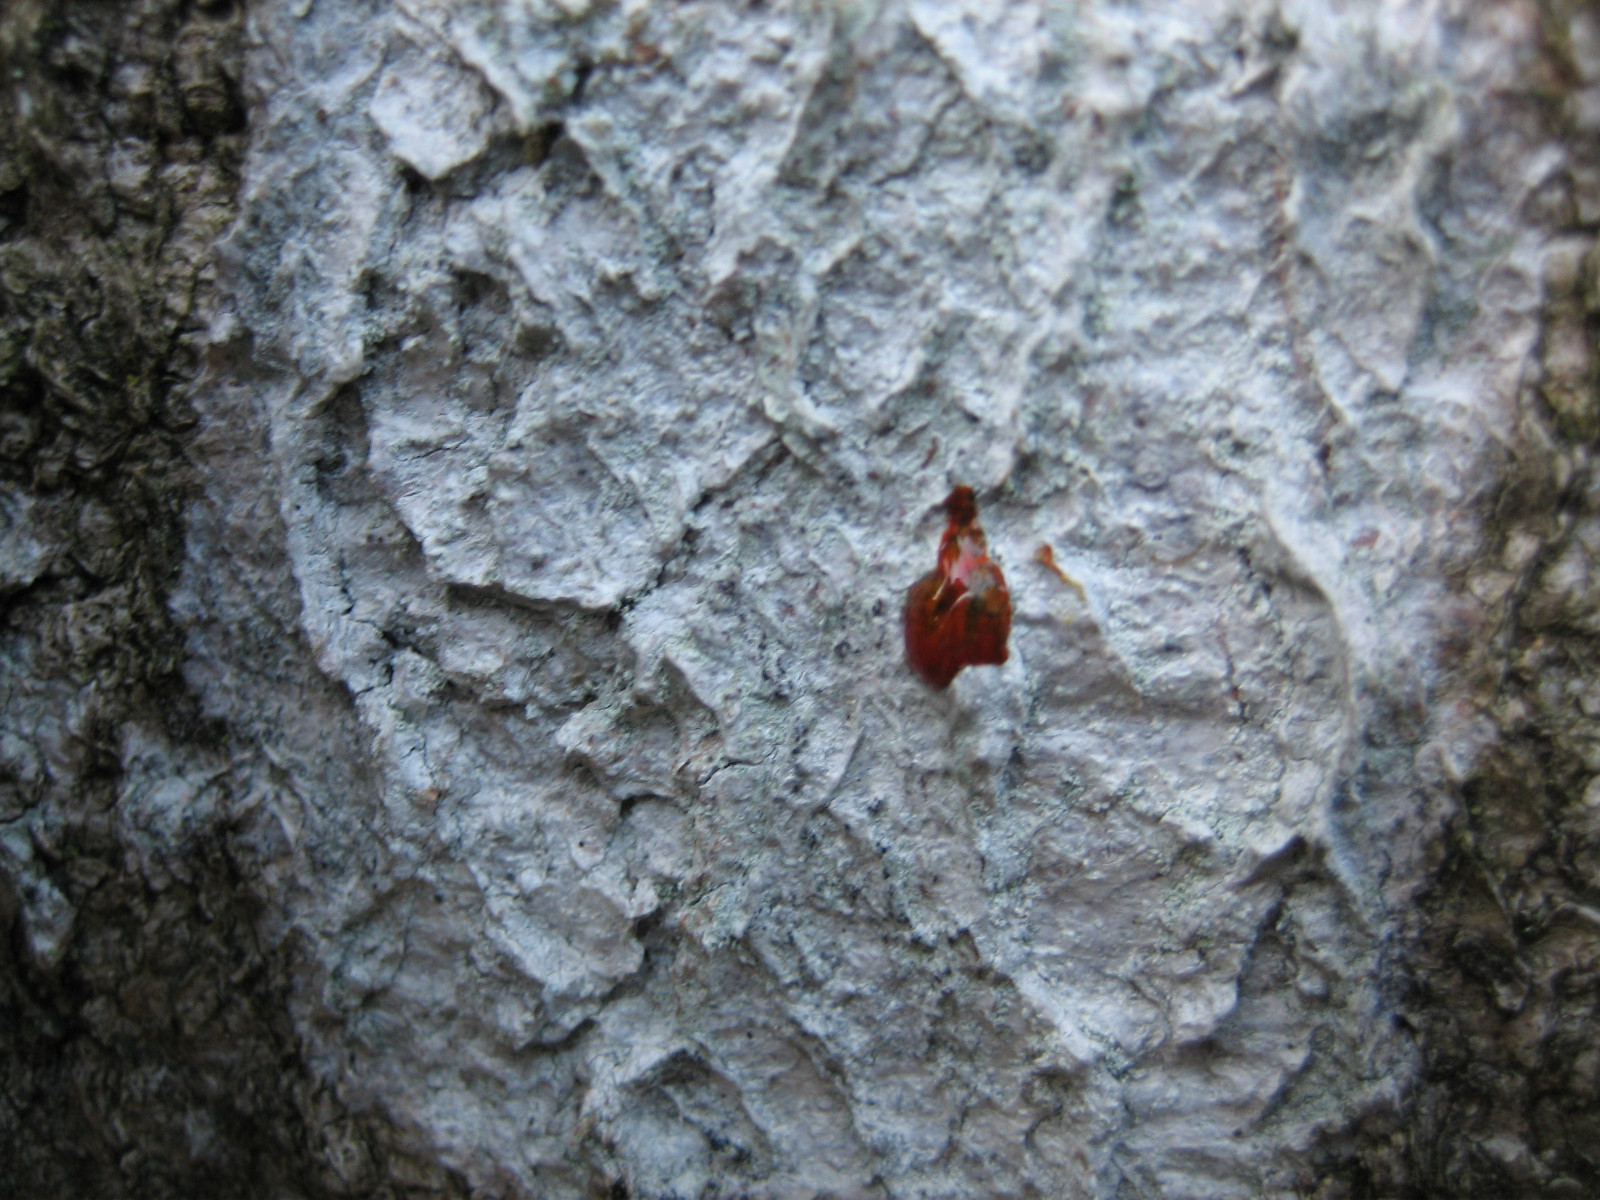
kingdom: Fungi
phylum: Ascomycota
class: Lecanoromycetes
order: Ostropales
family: Phlyctidaceae
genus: Phlyctis
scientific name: Phlyctis argena
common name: almindelig sølvlav
